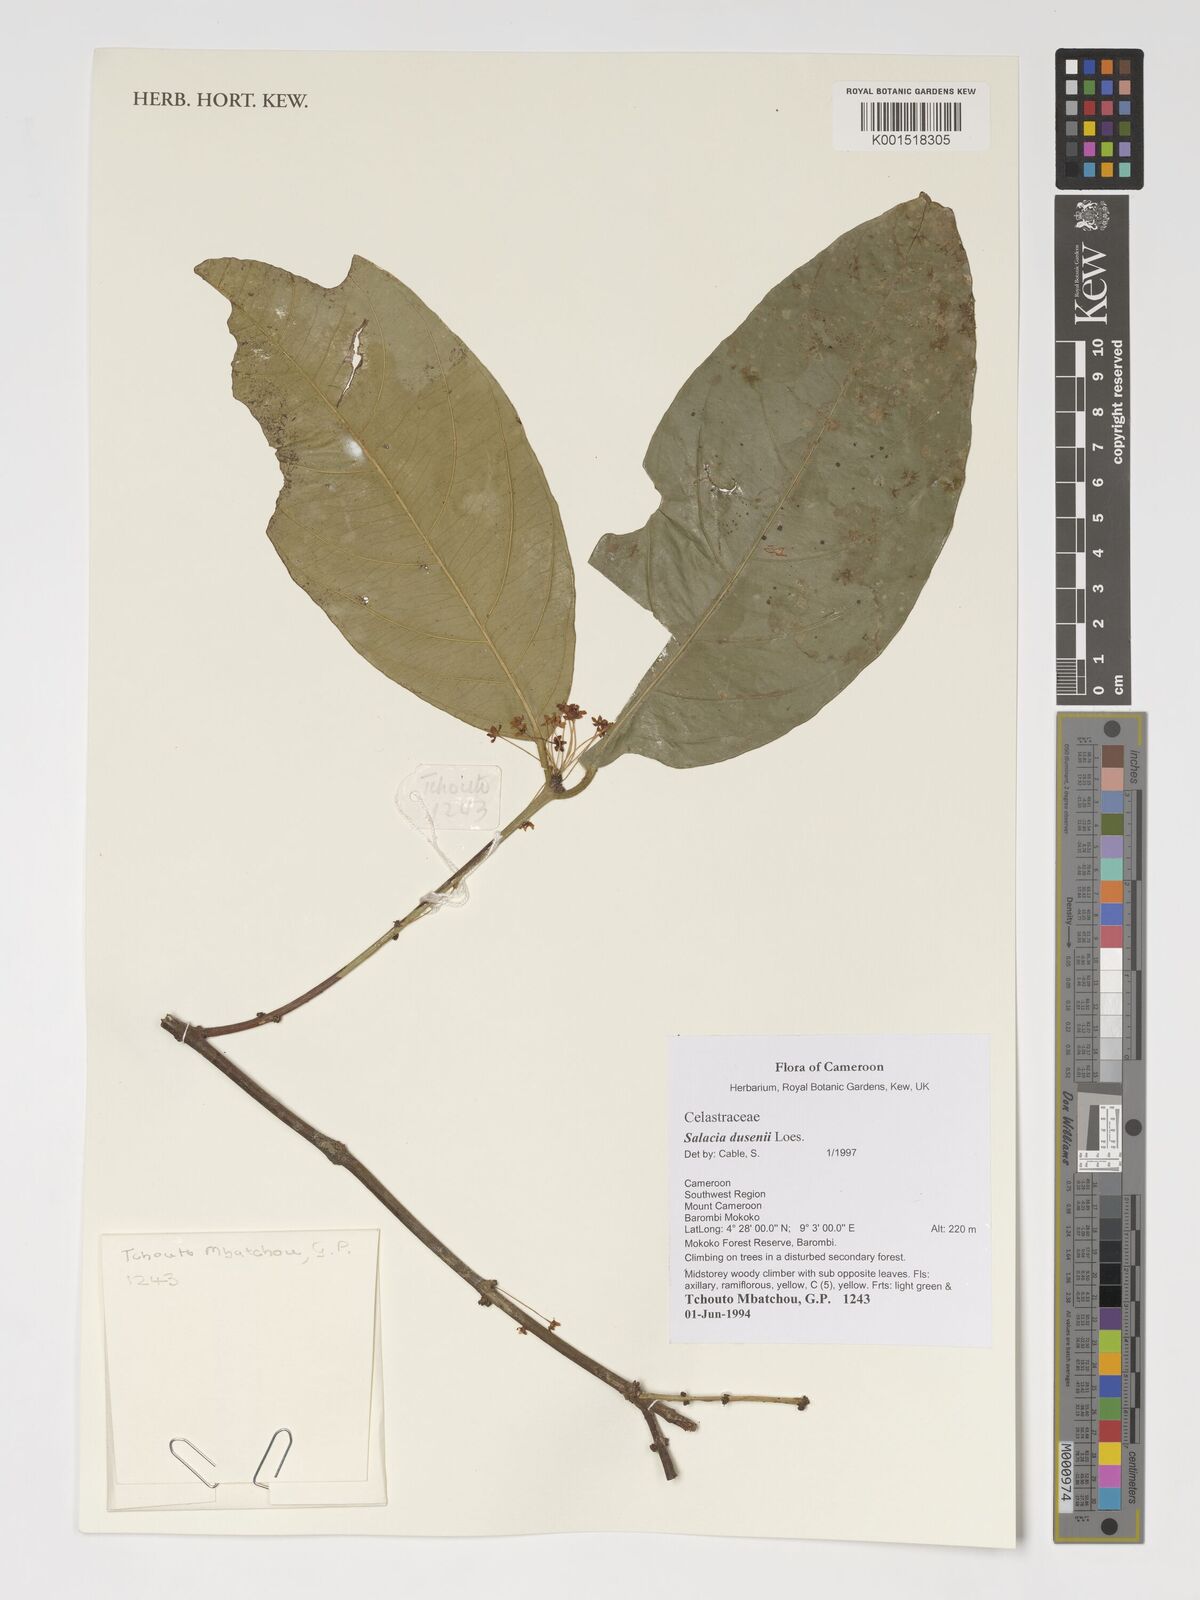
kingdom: Plantae
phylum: Tracheophyta
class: Magnoliopsida
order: Celastrales
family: Celastraceae
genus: Salacia
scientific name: Salacia dusenii
